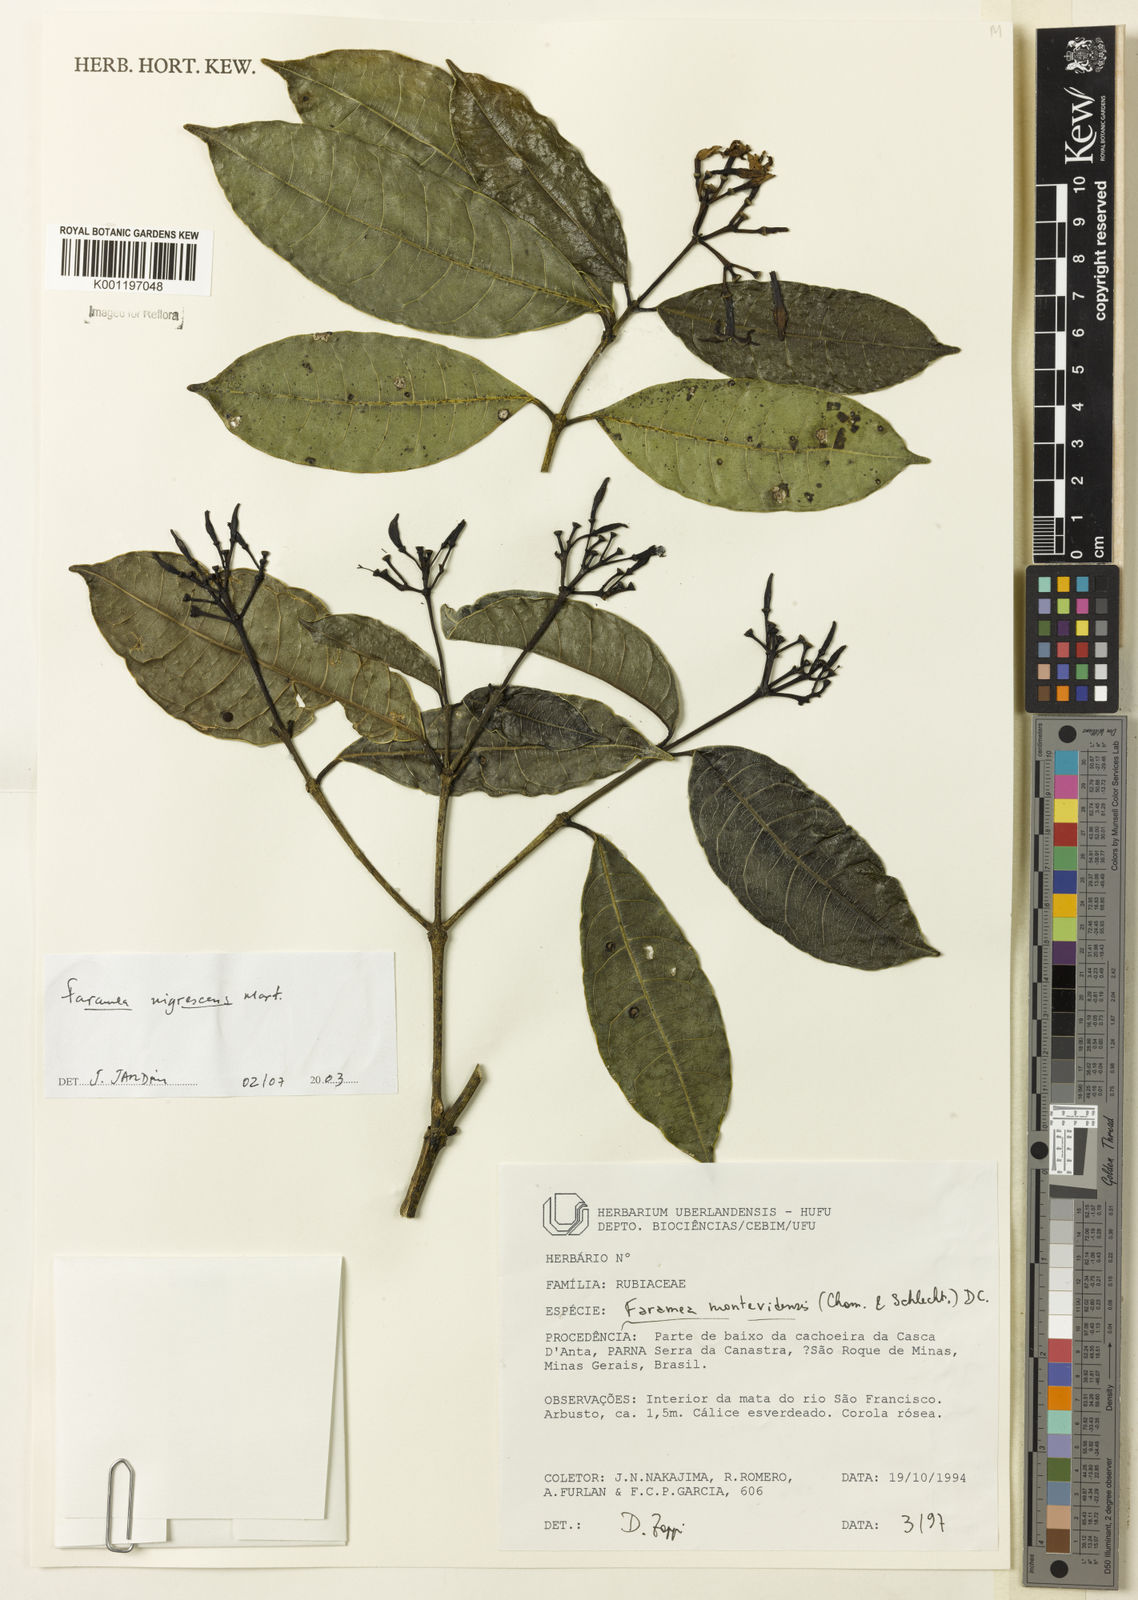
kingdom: Plantae
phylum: Tracheophyta
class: Magnoliopsida
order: Gentianales
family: Rubiaceae
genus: Faramea
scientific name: Faramea nigrescens
